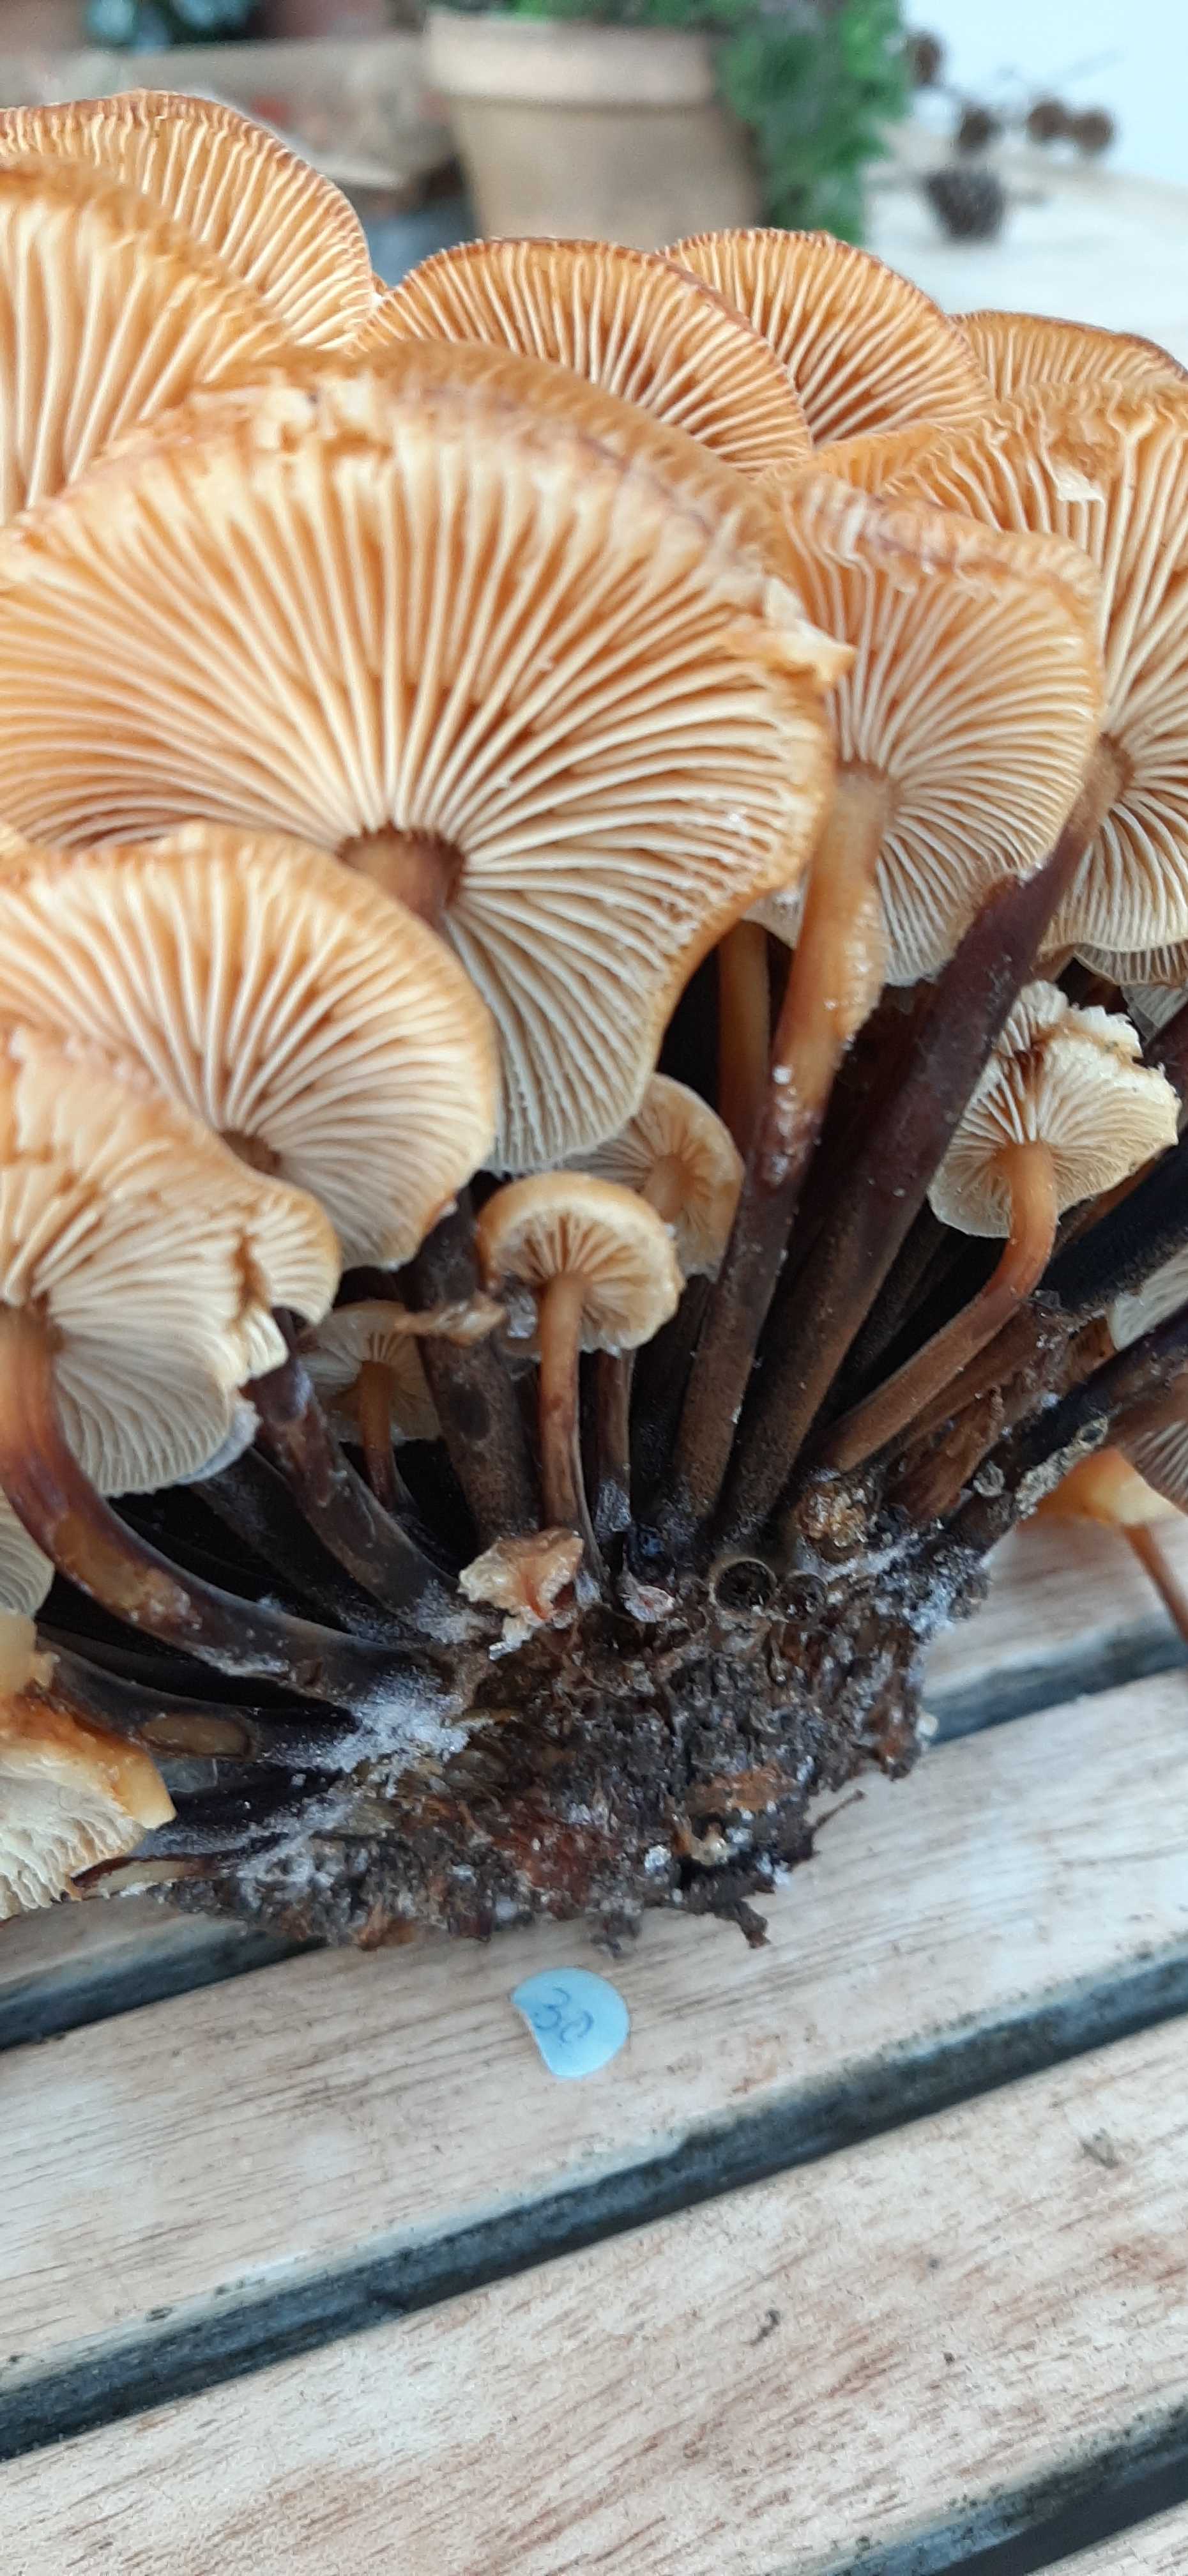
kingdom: Fungi
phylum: Basidiomycota
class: Agaricomycetes
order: Agaricales
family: Physalacriaceae
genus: Flammulina
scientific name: Flammulina
